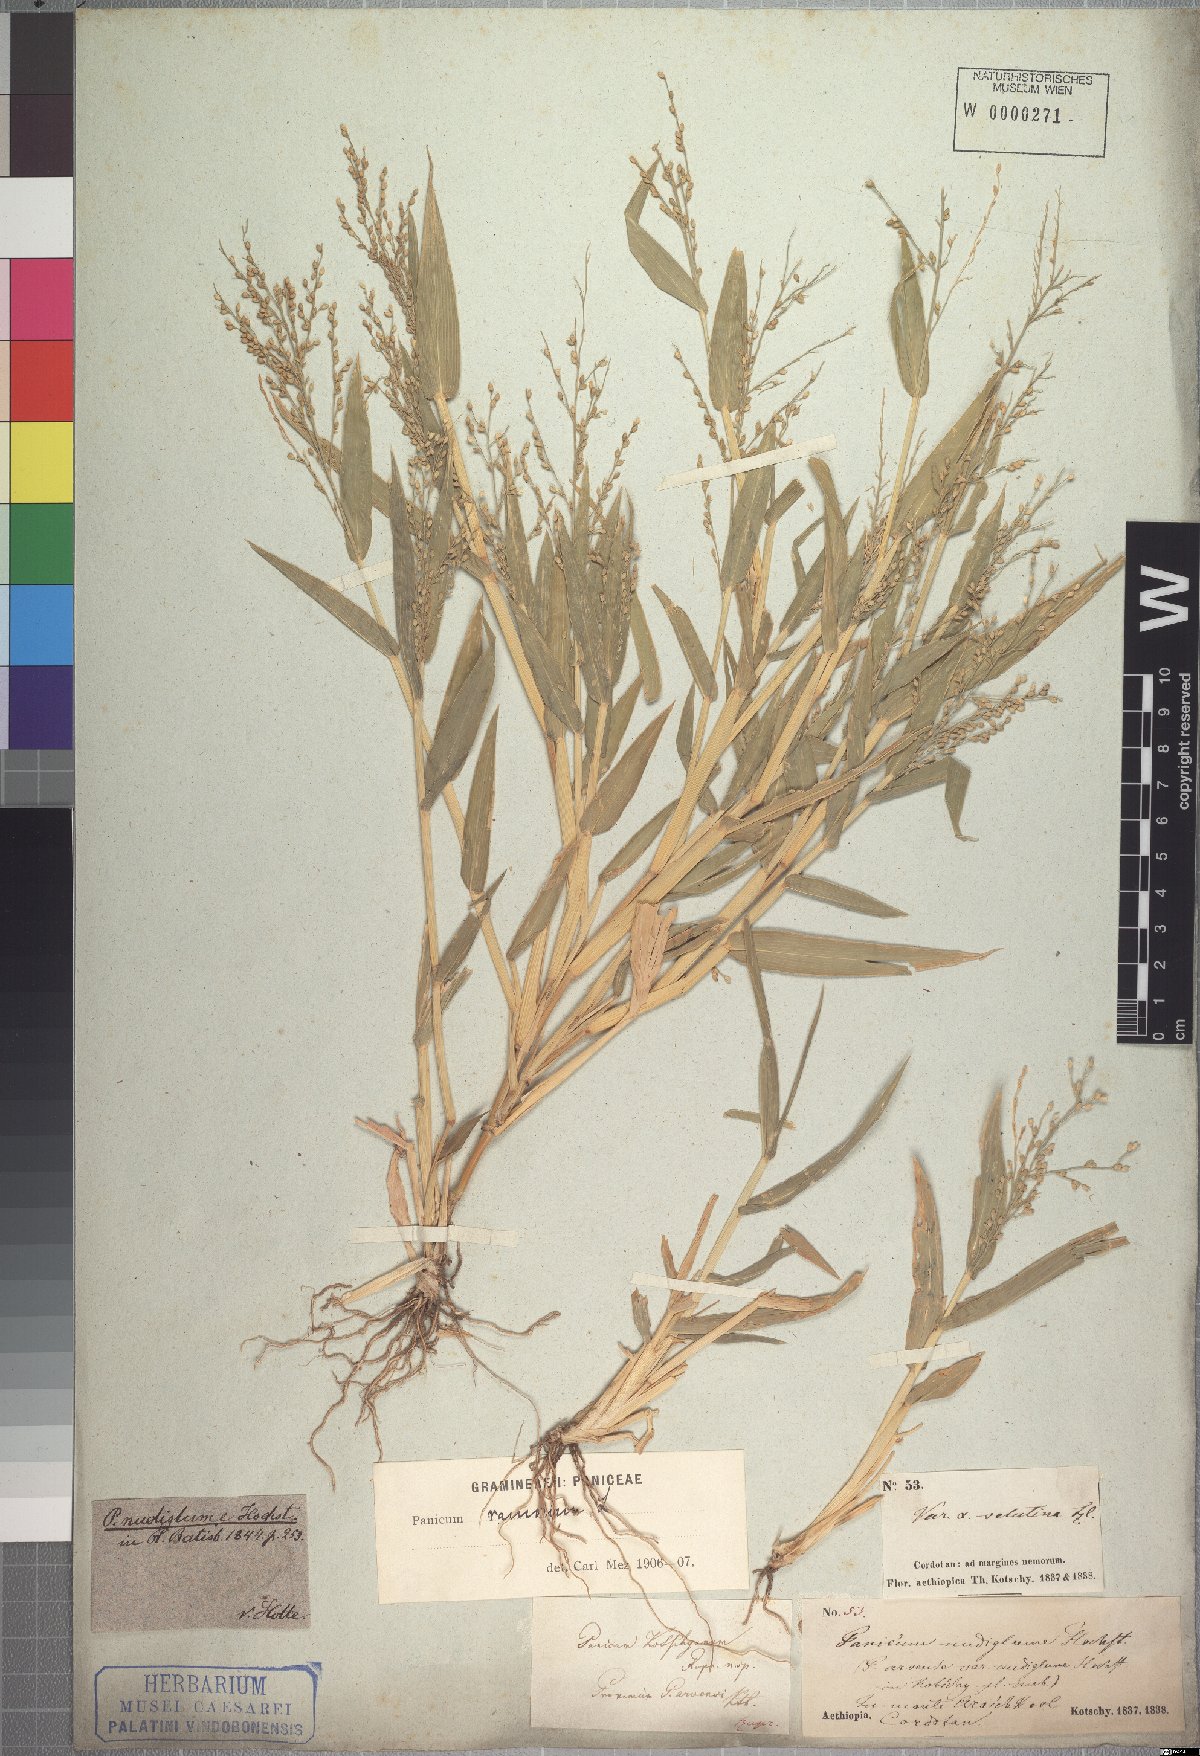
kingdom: Plantae
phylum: Tracheophyta
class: Liliopsida
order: Poales
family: Poaceae
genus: Urochloa
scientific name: Urochloa deflexa
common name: Guinea millet
